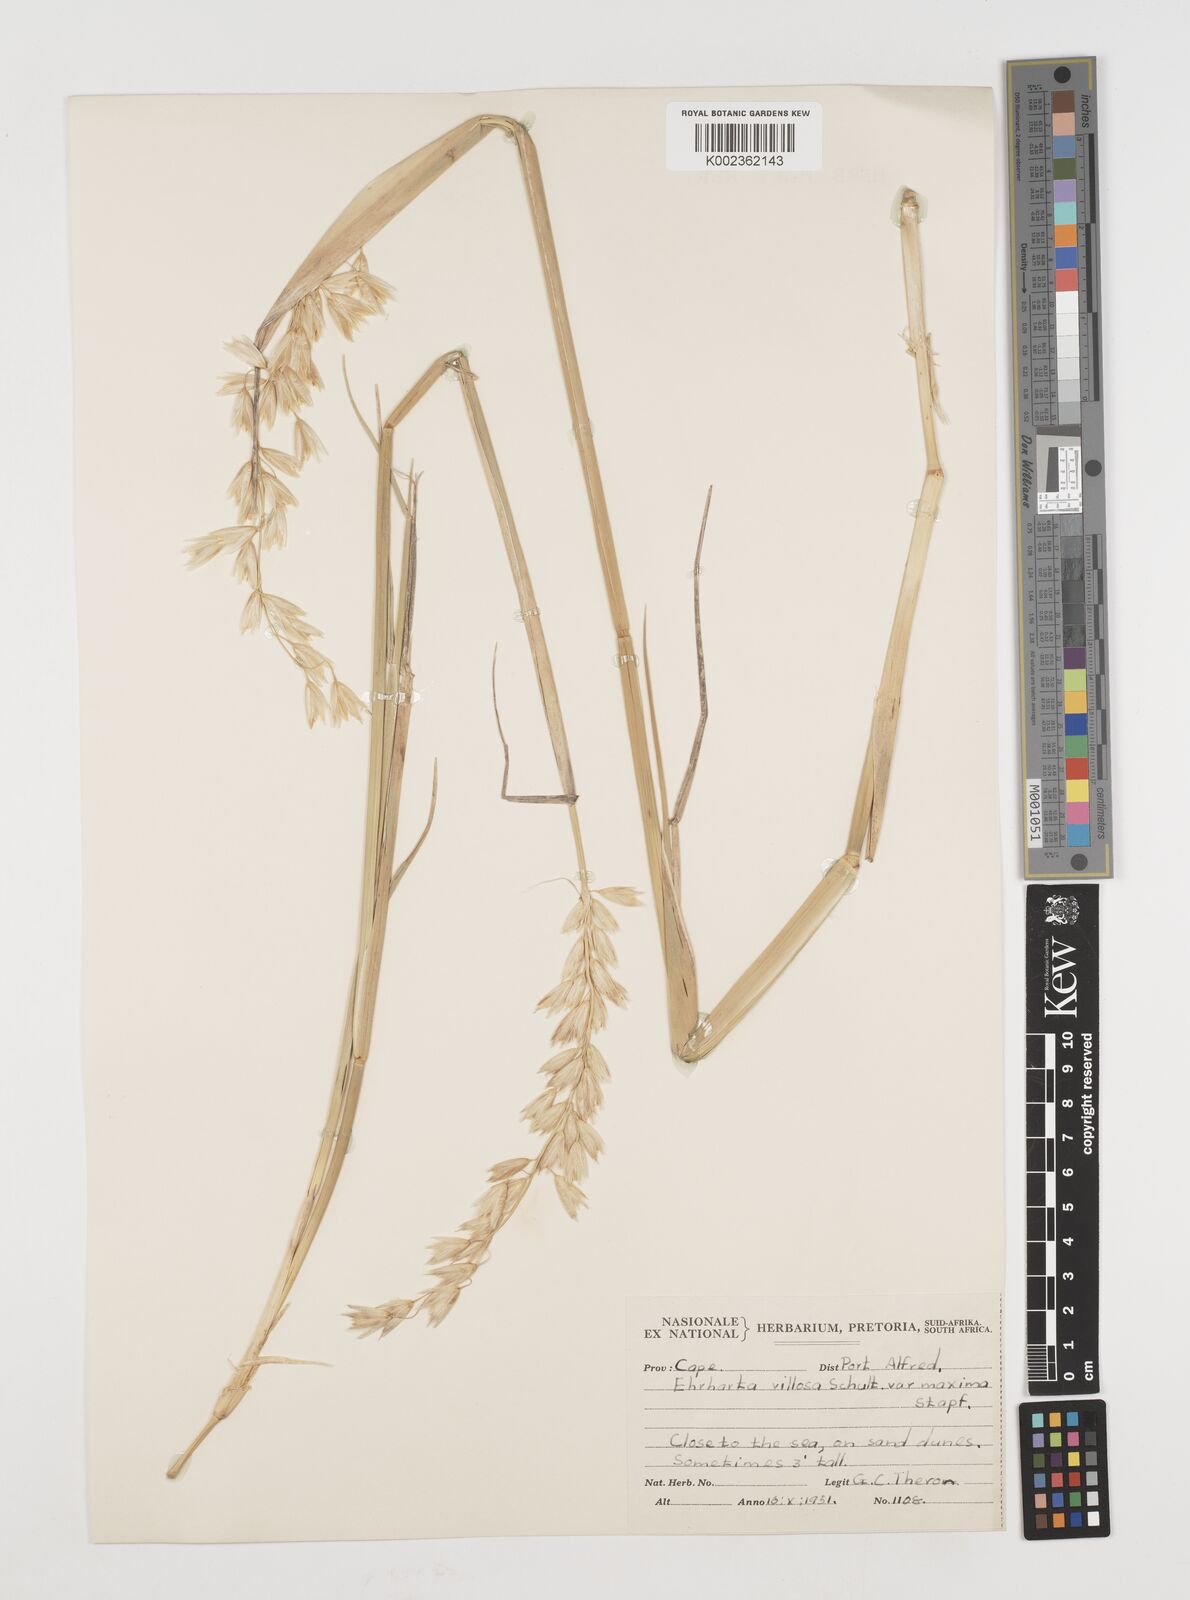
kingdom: Plantae
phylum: Tracheophyta
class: Liliopsida
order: Poales
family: Poaceae
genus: Ehrharta
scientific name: Ehrharta villosa
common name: Pyp grass
